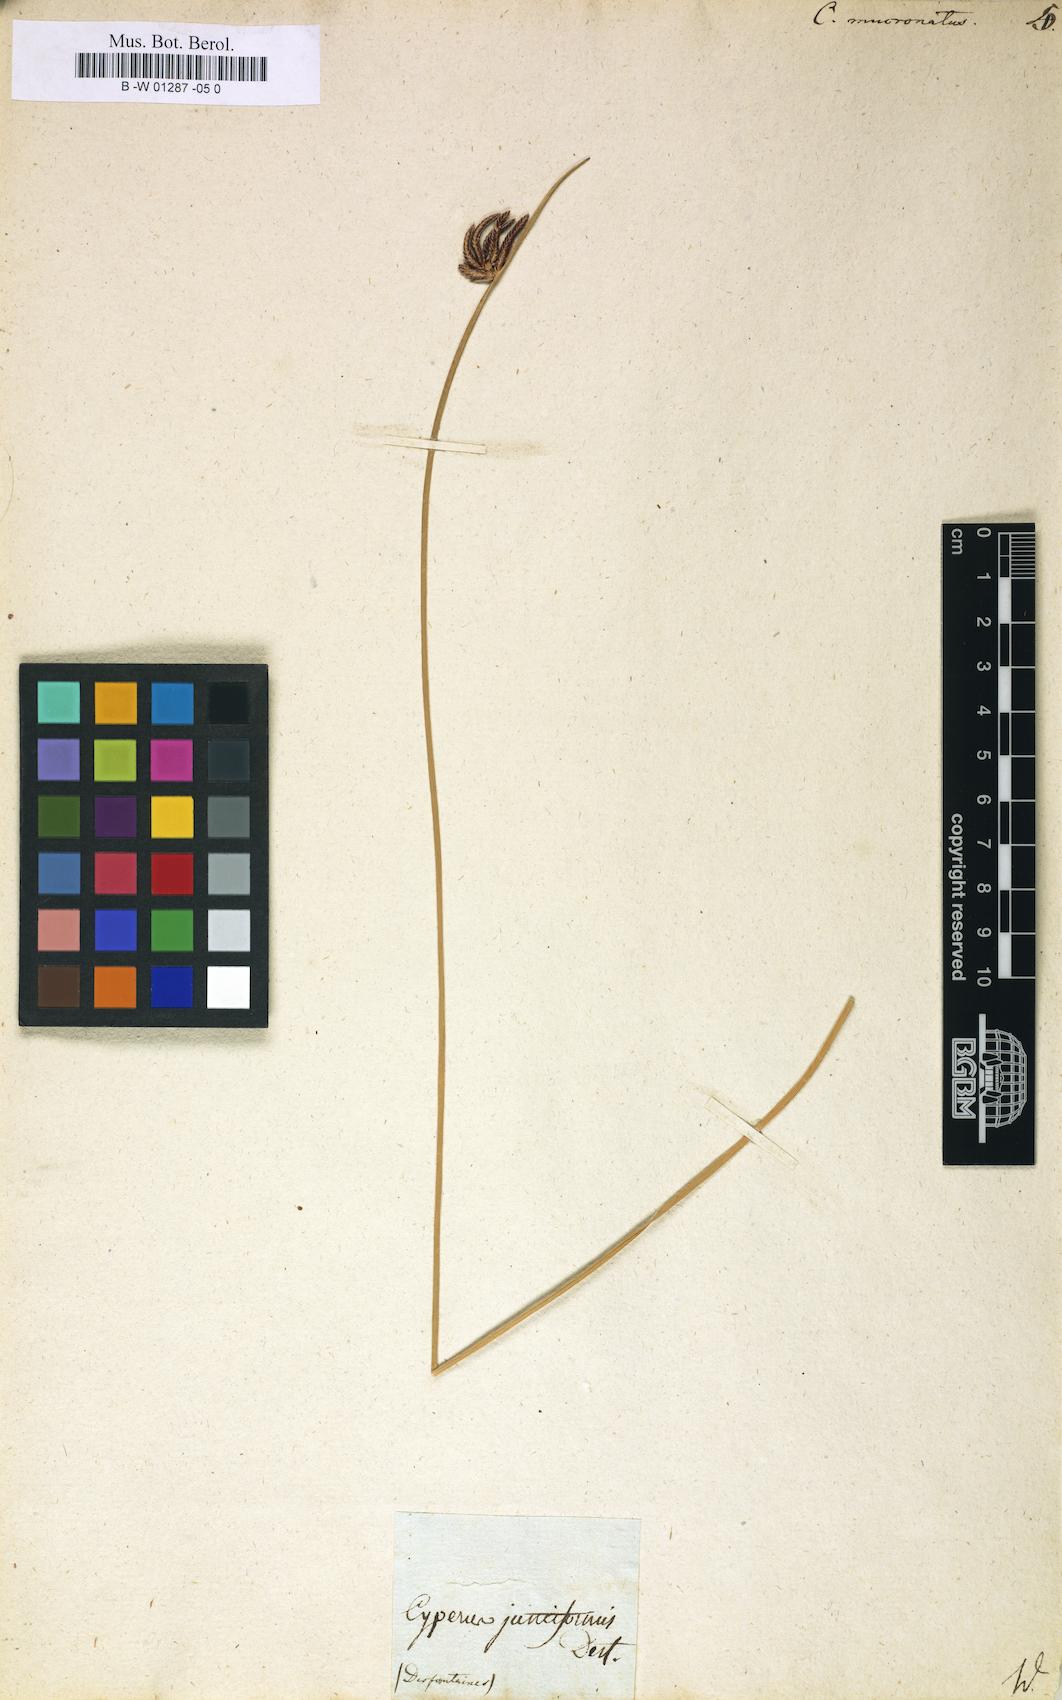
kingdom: Plantae
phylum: Tracheophyta
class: Liliopsida
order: Poales
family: Cyperaceae
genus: Cyperus
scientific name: Cyperus laevigatus
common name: Smooth flat sedge
